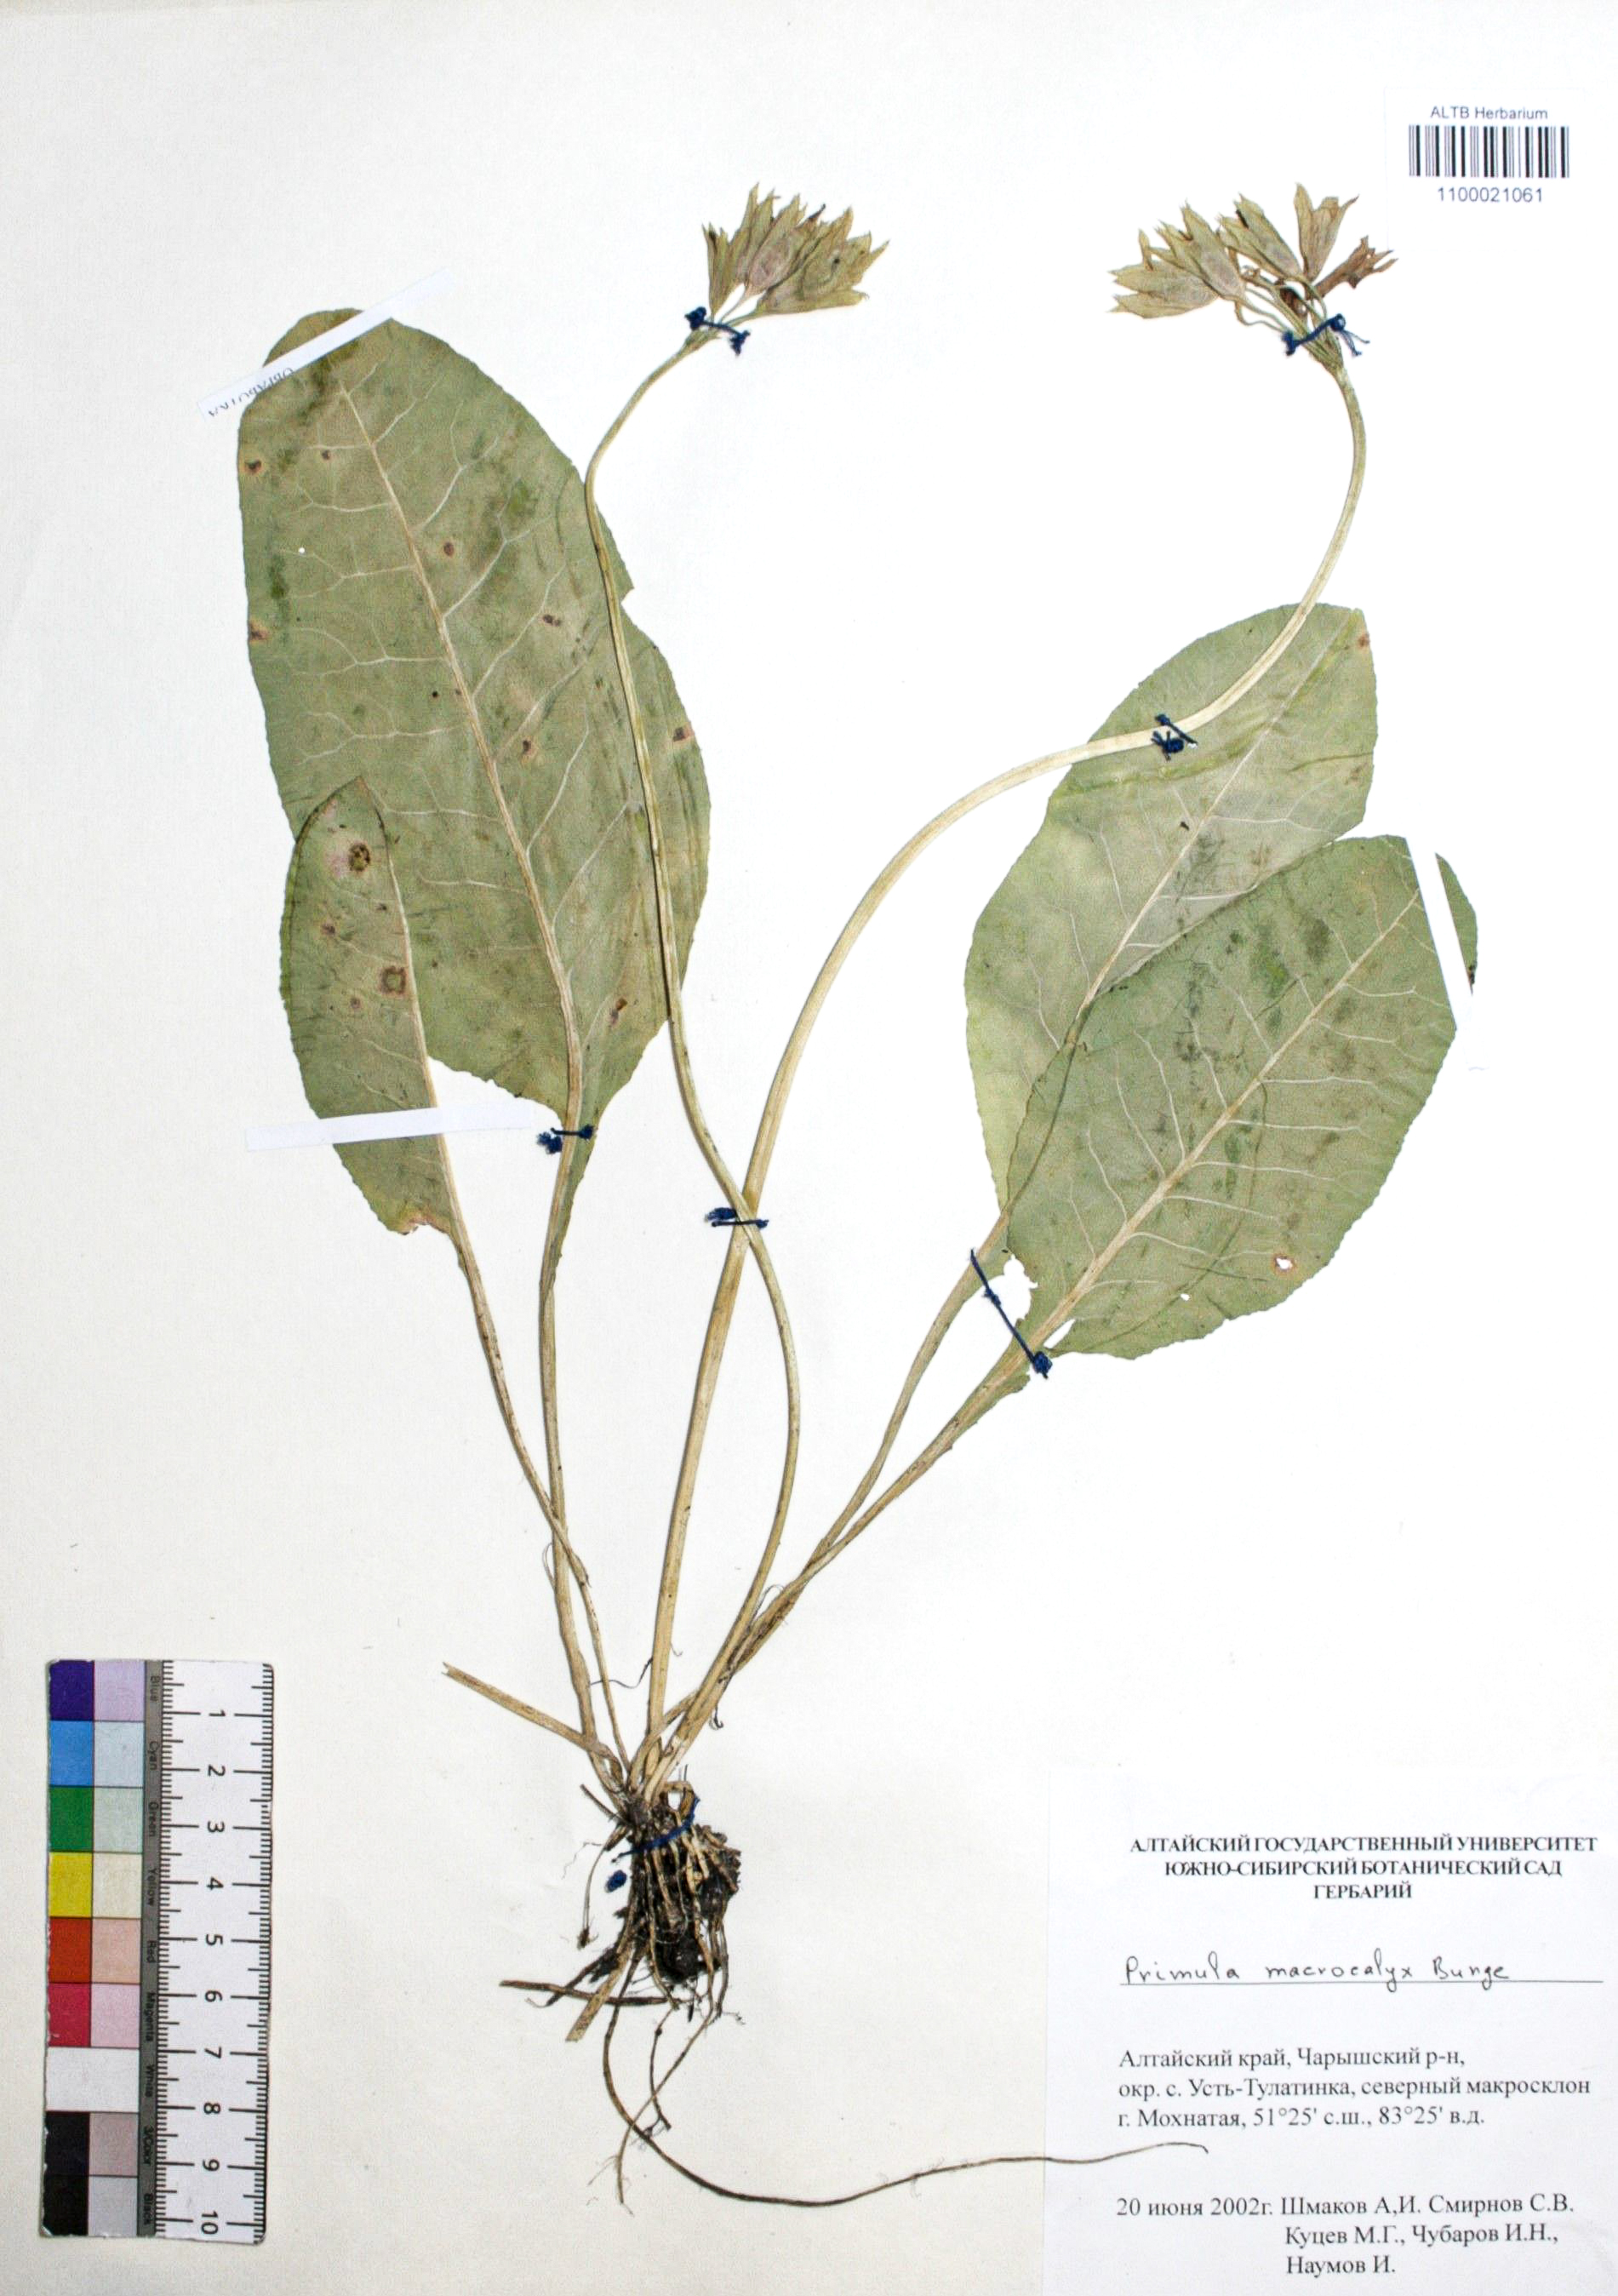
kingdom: Plantae
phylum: Tracheophyta
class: Magnoliopsida
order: Ericales
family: Primulaceae
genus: Primula
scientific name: Primula veris
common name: Cowslip
